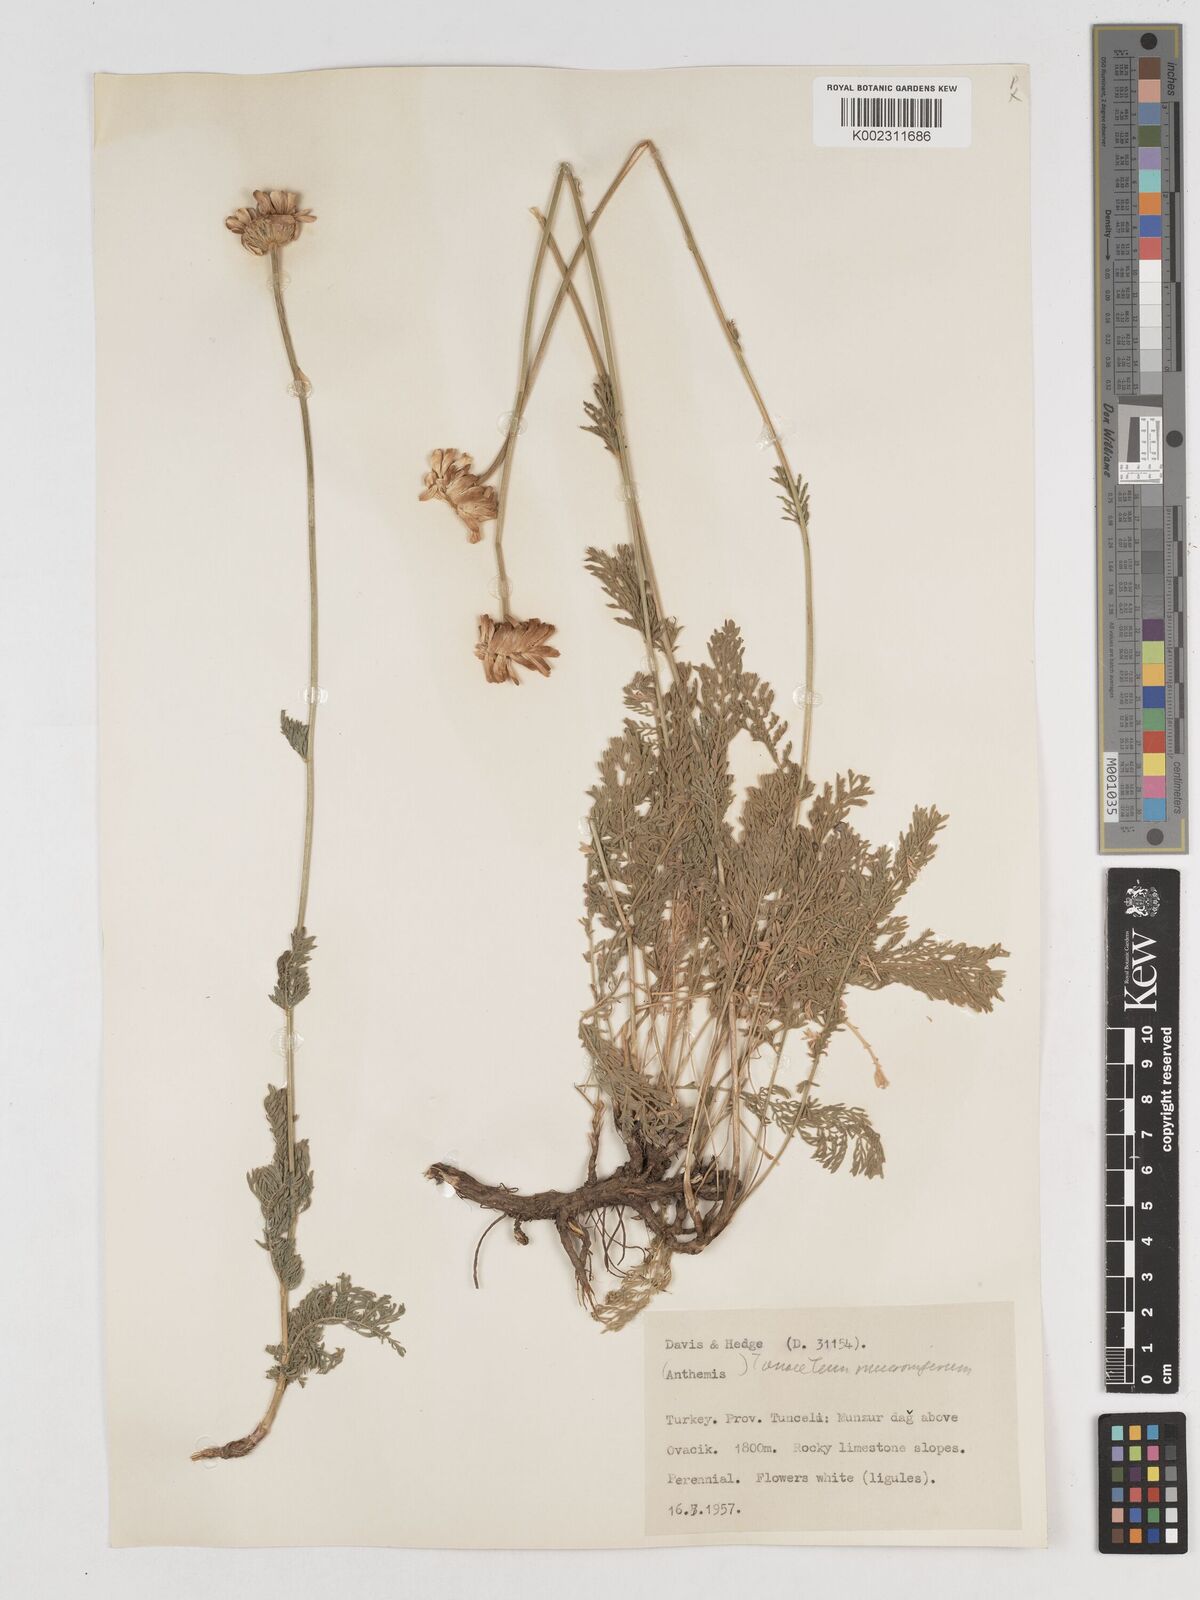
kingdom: Plantae
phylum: Tracheophyta
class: Magnoliopsida
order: Asterales
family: Asteraceae
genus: Tanacetum
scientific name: Tanacetum mucroniferum
